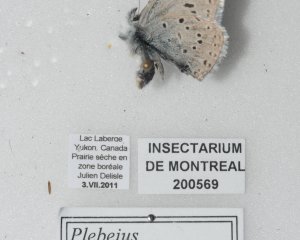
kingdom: Animalia
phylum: Arthropoda
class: Insecta
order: Lepidoptera
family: Lycaenidae
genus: Plebejus
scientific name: Plebejus saepiolus
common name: Greenish Blue
